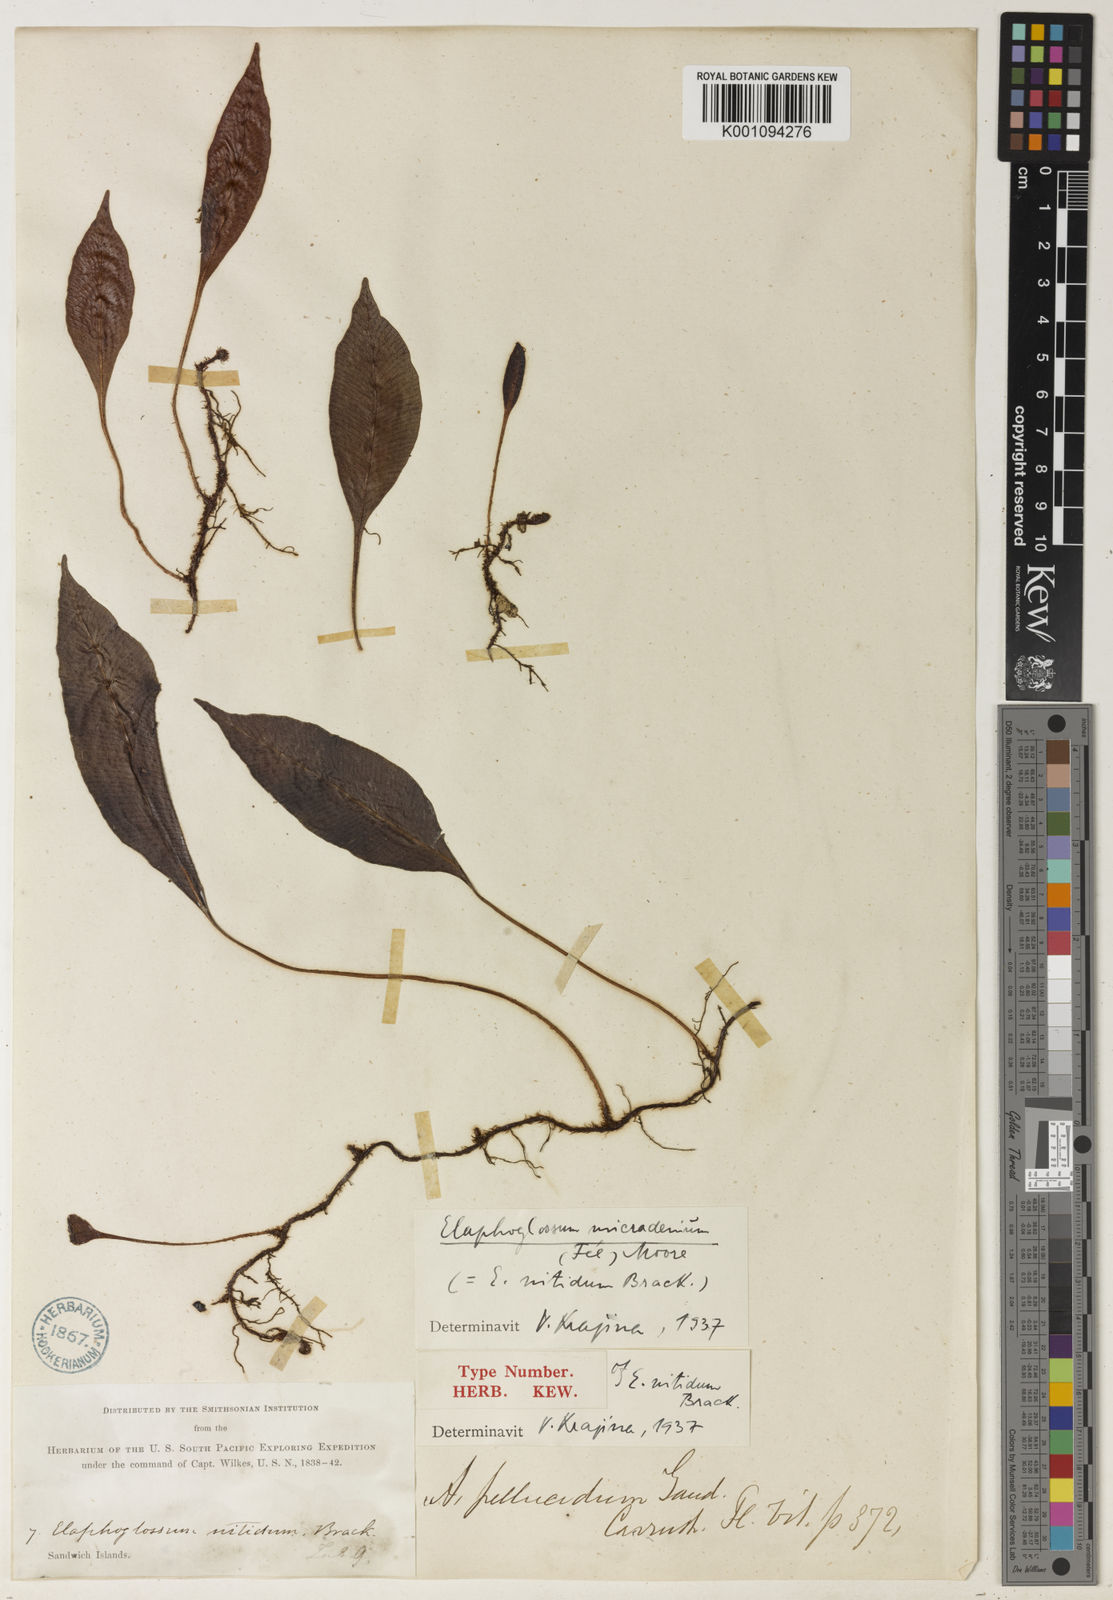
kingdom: Plantae
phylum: Tracheophyta
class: Polypodiopsida
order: Polypodiales
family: Dryopteridaceae
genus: Elaphoglossum
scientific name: Elaphoglossum
